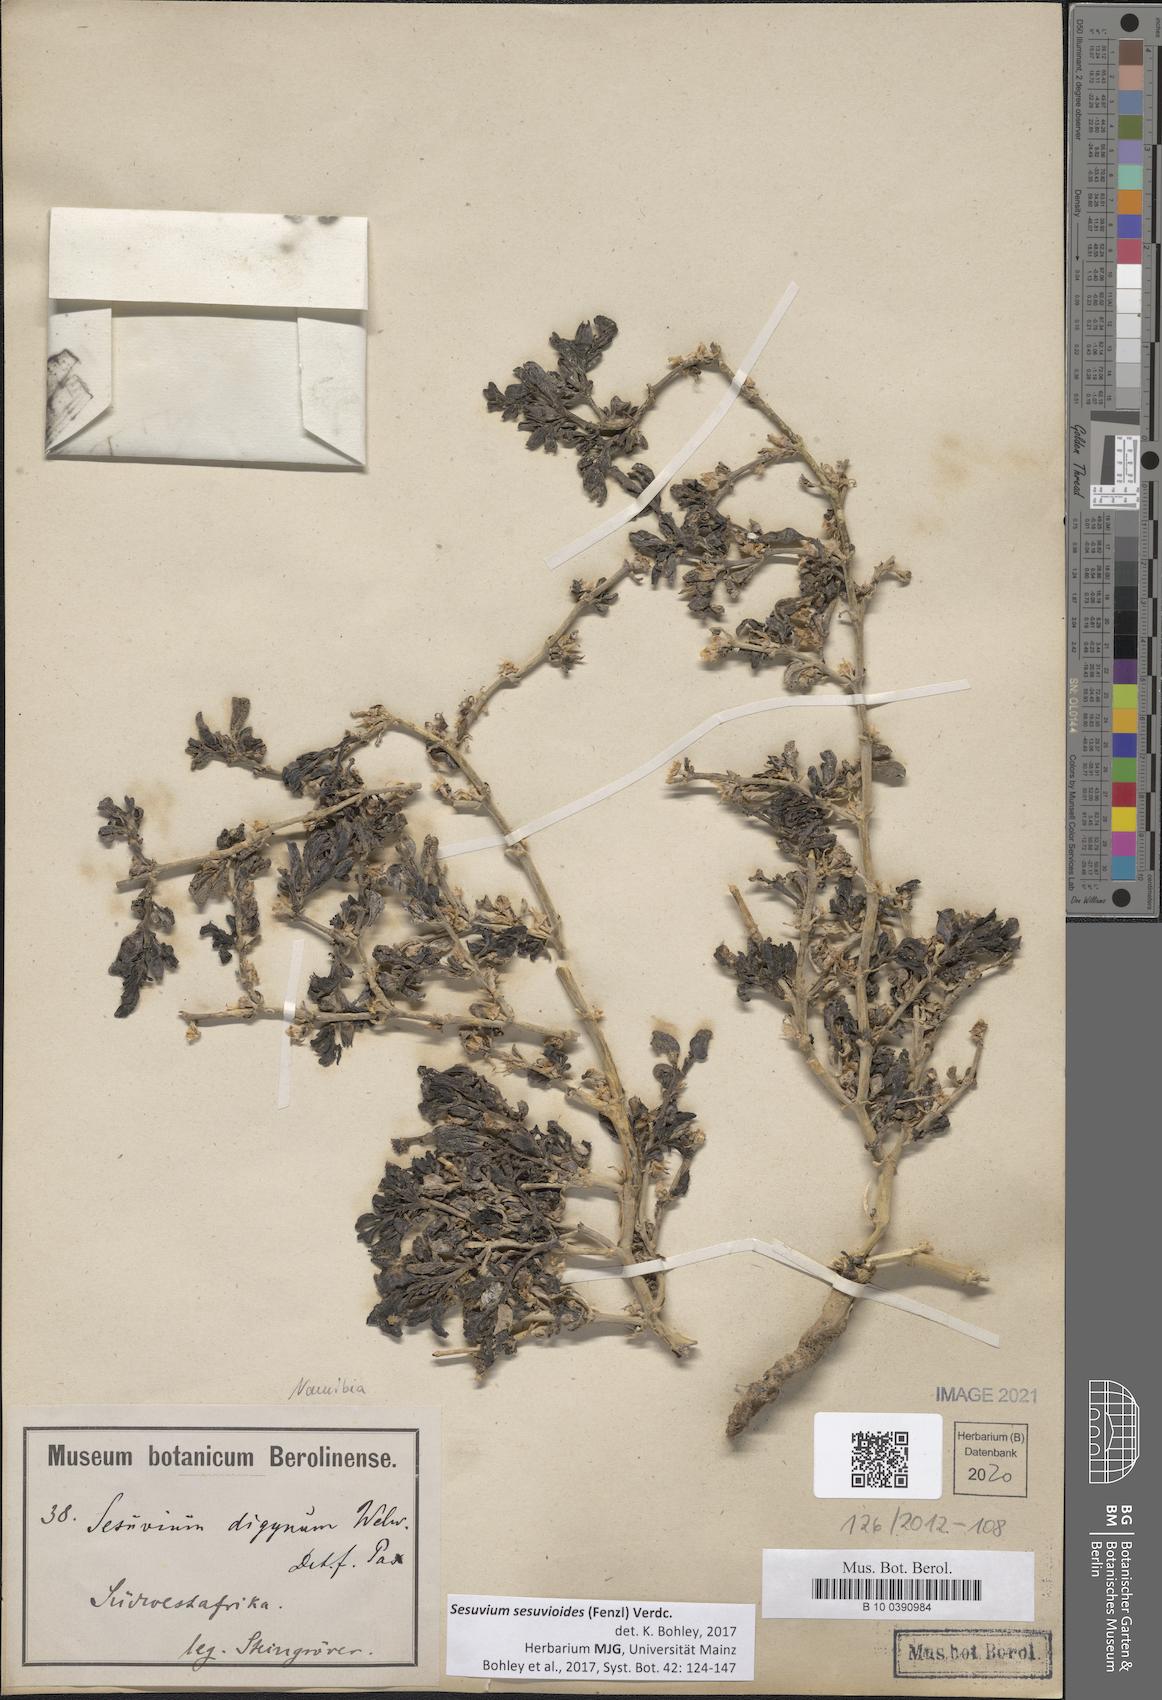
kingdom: Plantae
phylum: Tracheophyta
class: Magnoliopsida
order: Caryophyllales
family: Aizoaceae
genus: Sesuvium
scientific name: Sesuvium sesuvioides
